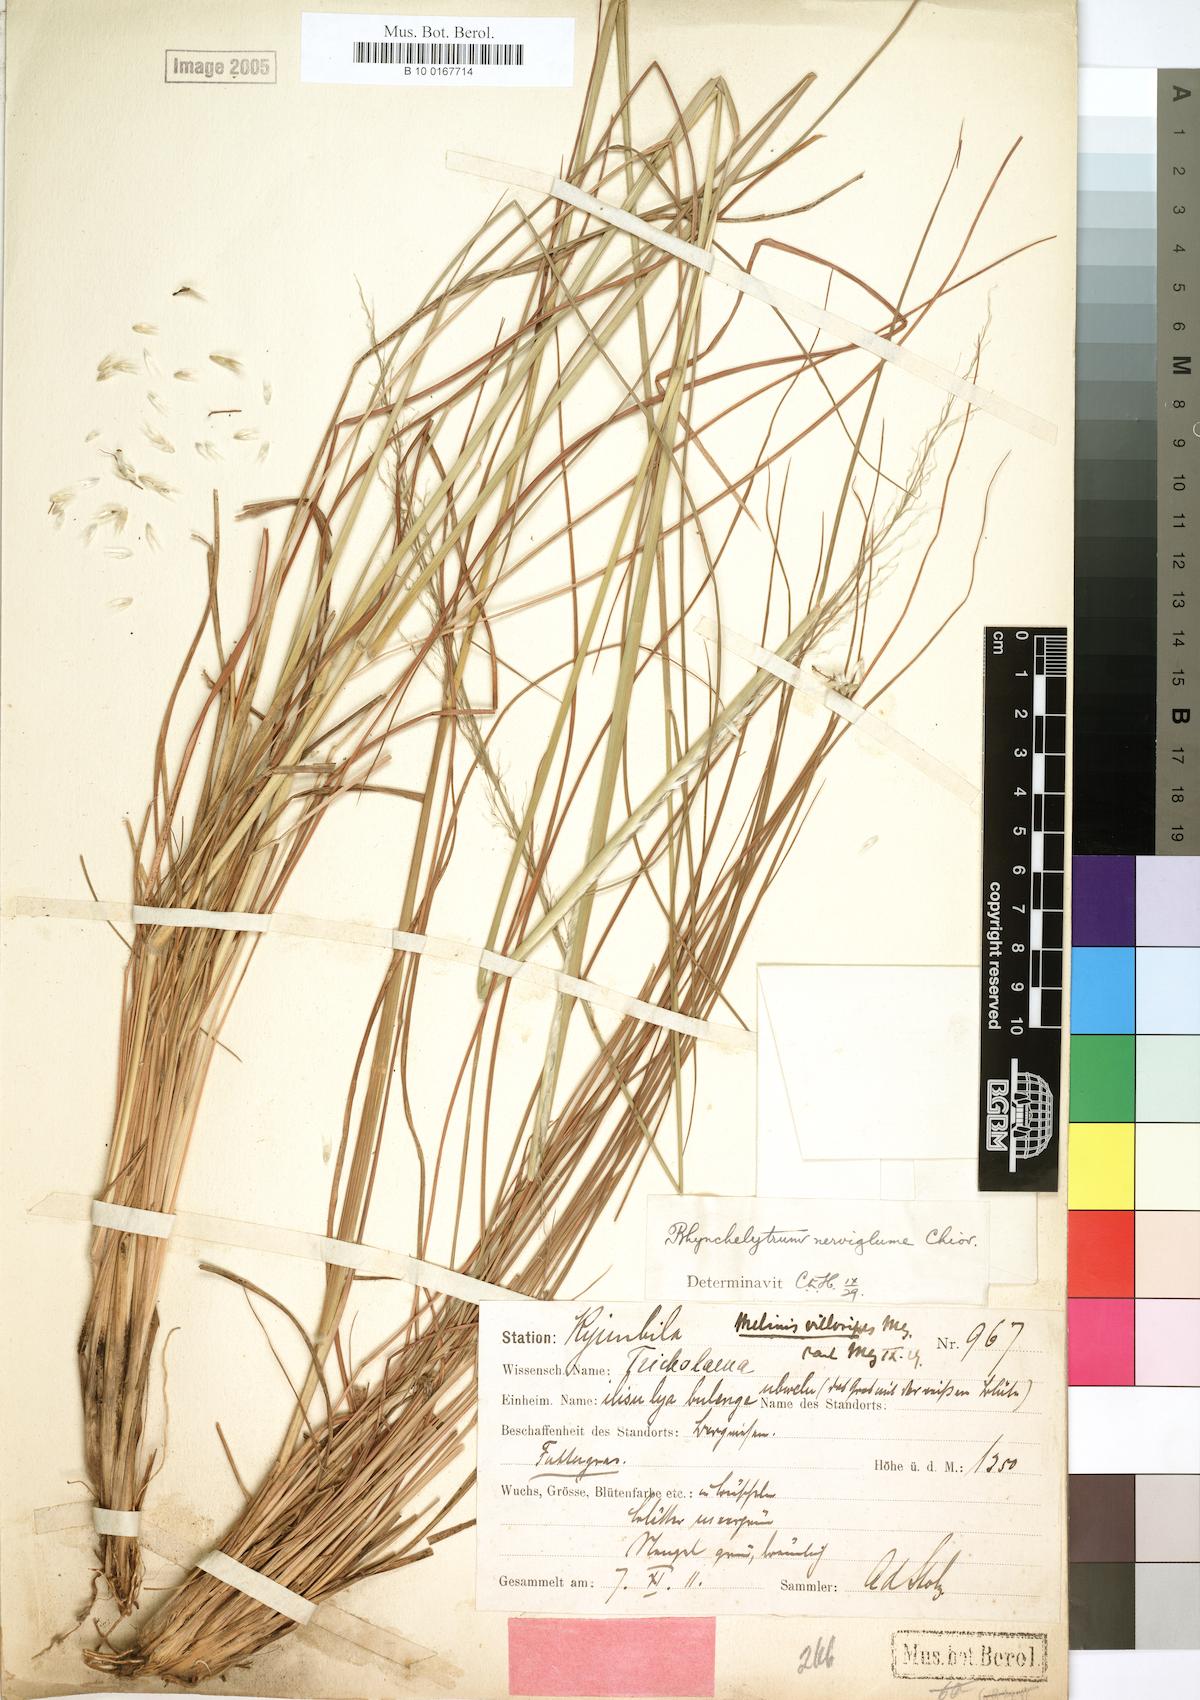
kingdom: Plantae
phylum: Tracheophyta
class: Liliopsida
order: Poales
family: Poaceae
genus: Melinis
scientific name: Melinis nerviglumis
